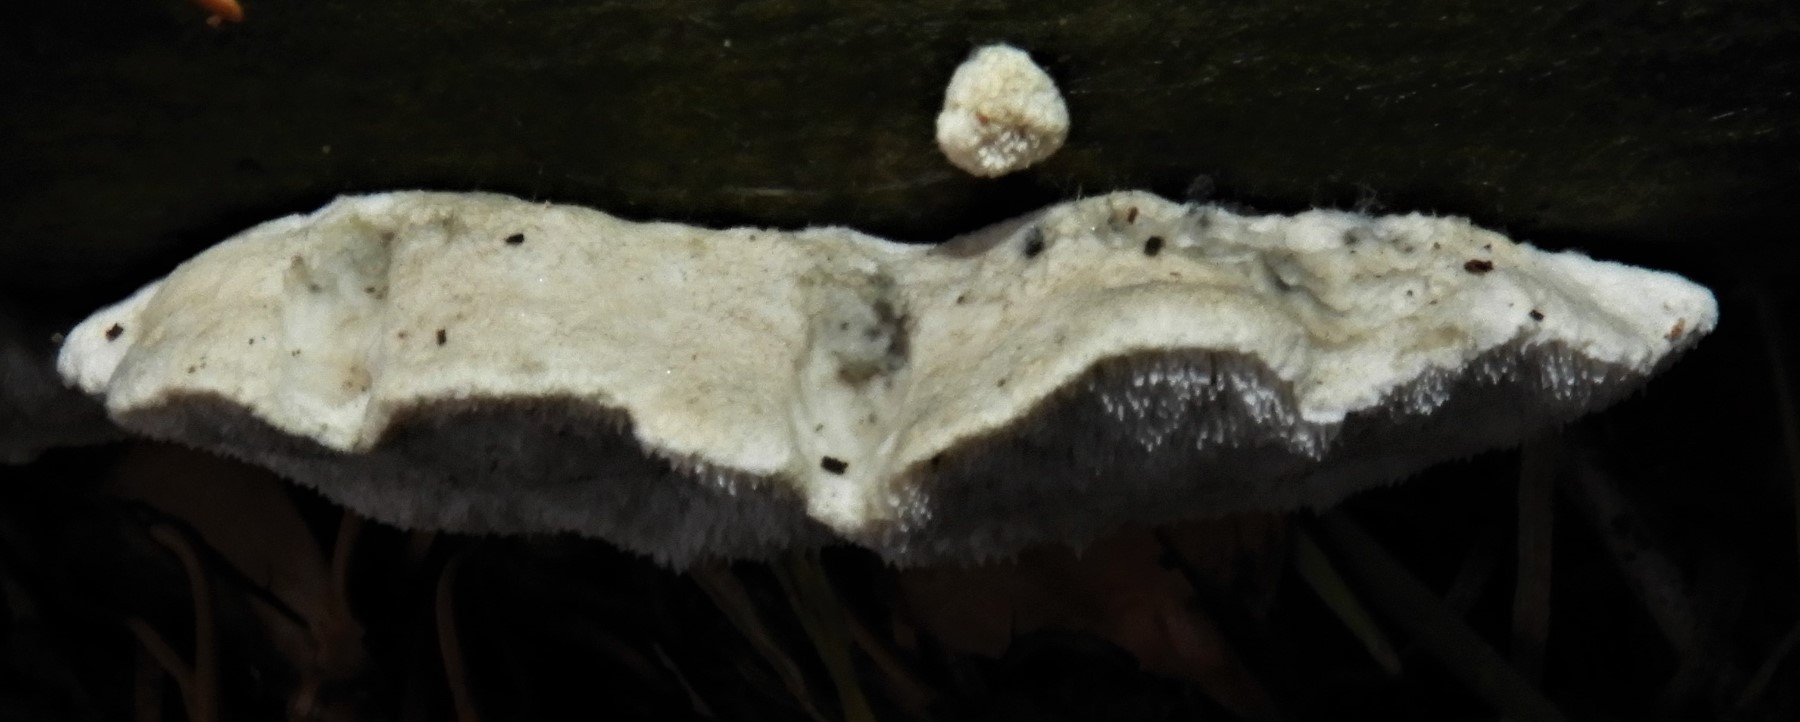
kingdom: Fungi
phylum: Basidiomycota
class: Agaricomycetes
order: Polyporales
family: Incrustoporiaceae
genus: Tyromyces
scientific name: Tyromyces chioneus
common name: stor blødporesvamp
